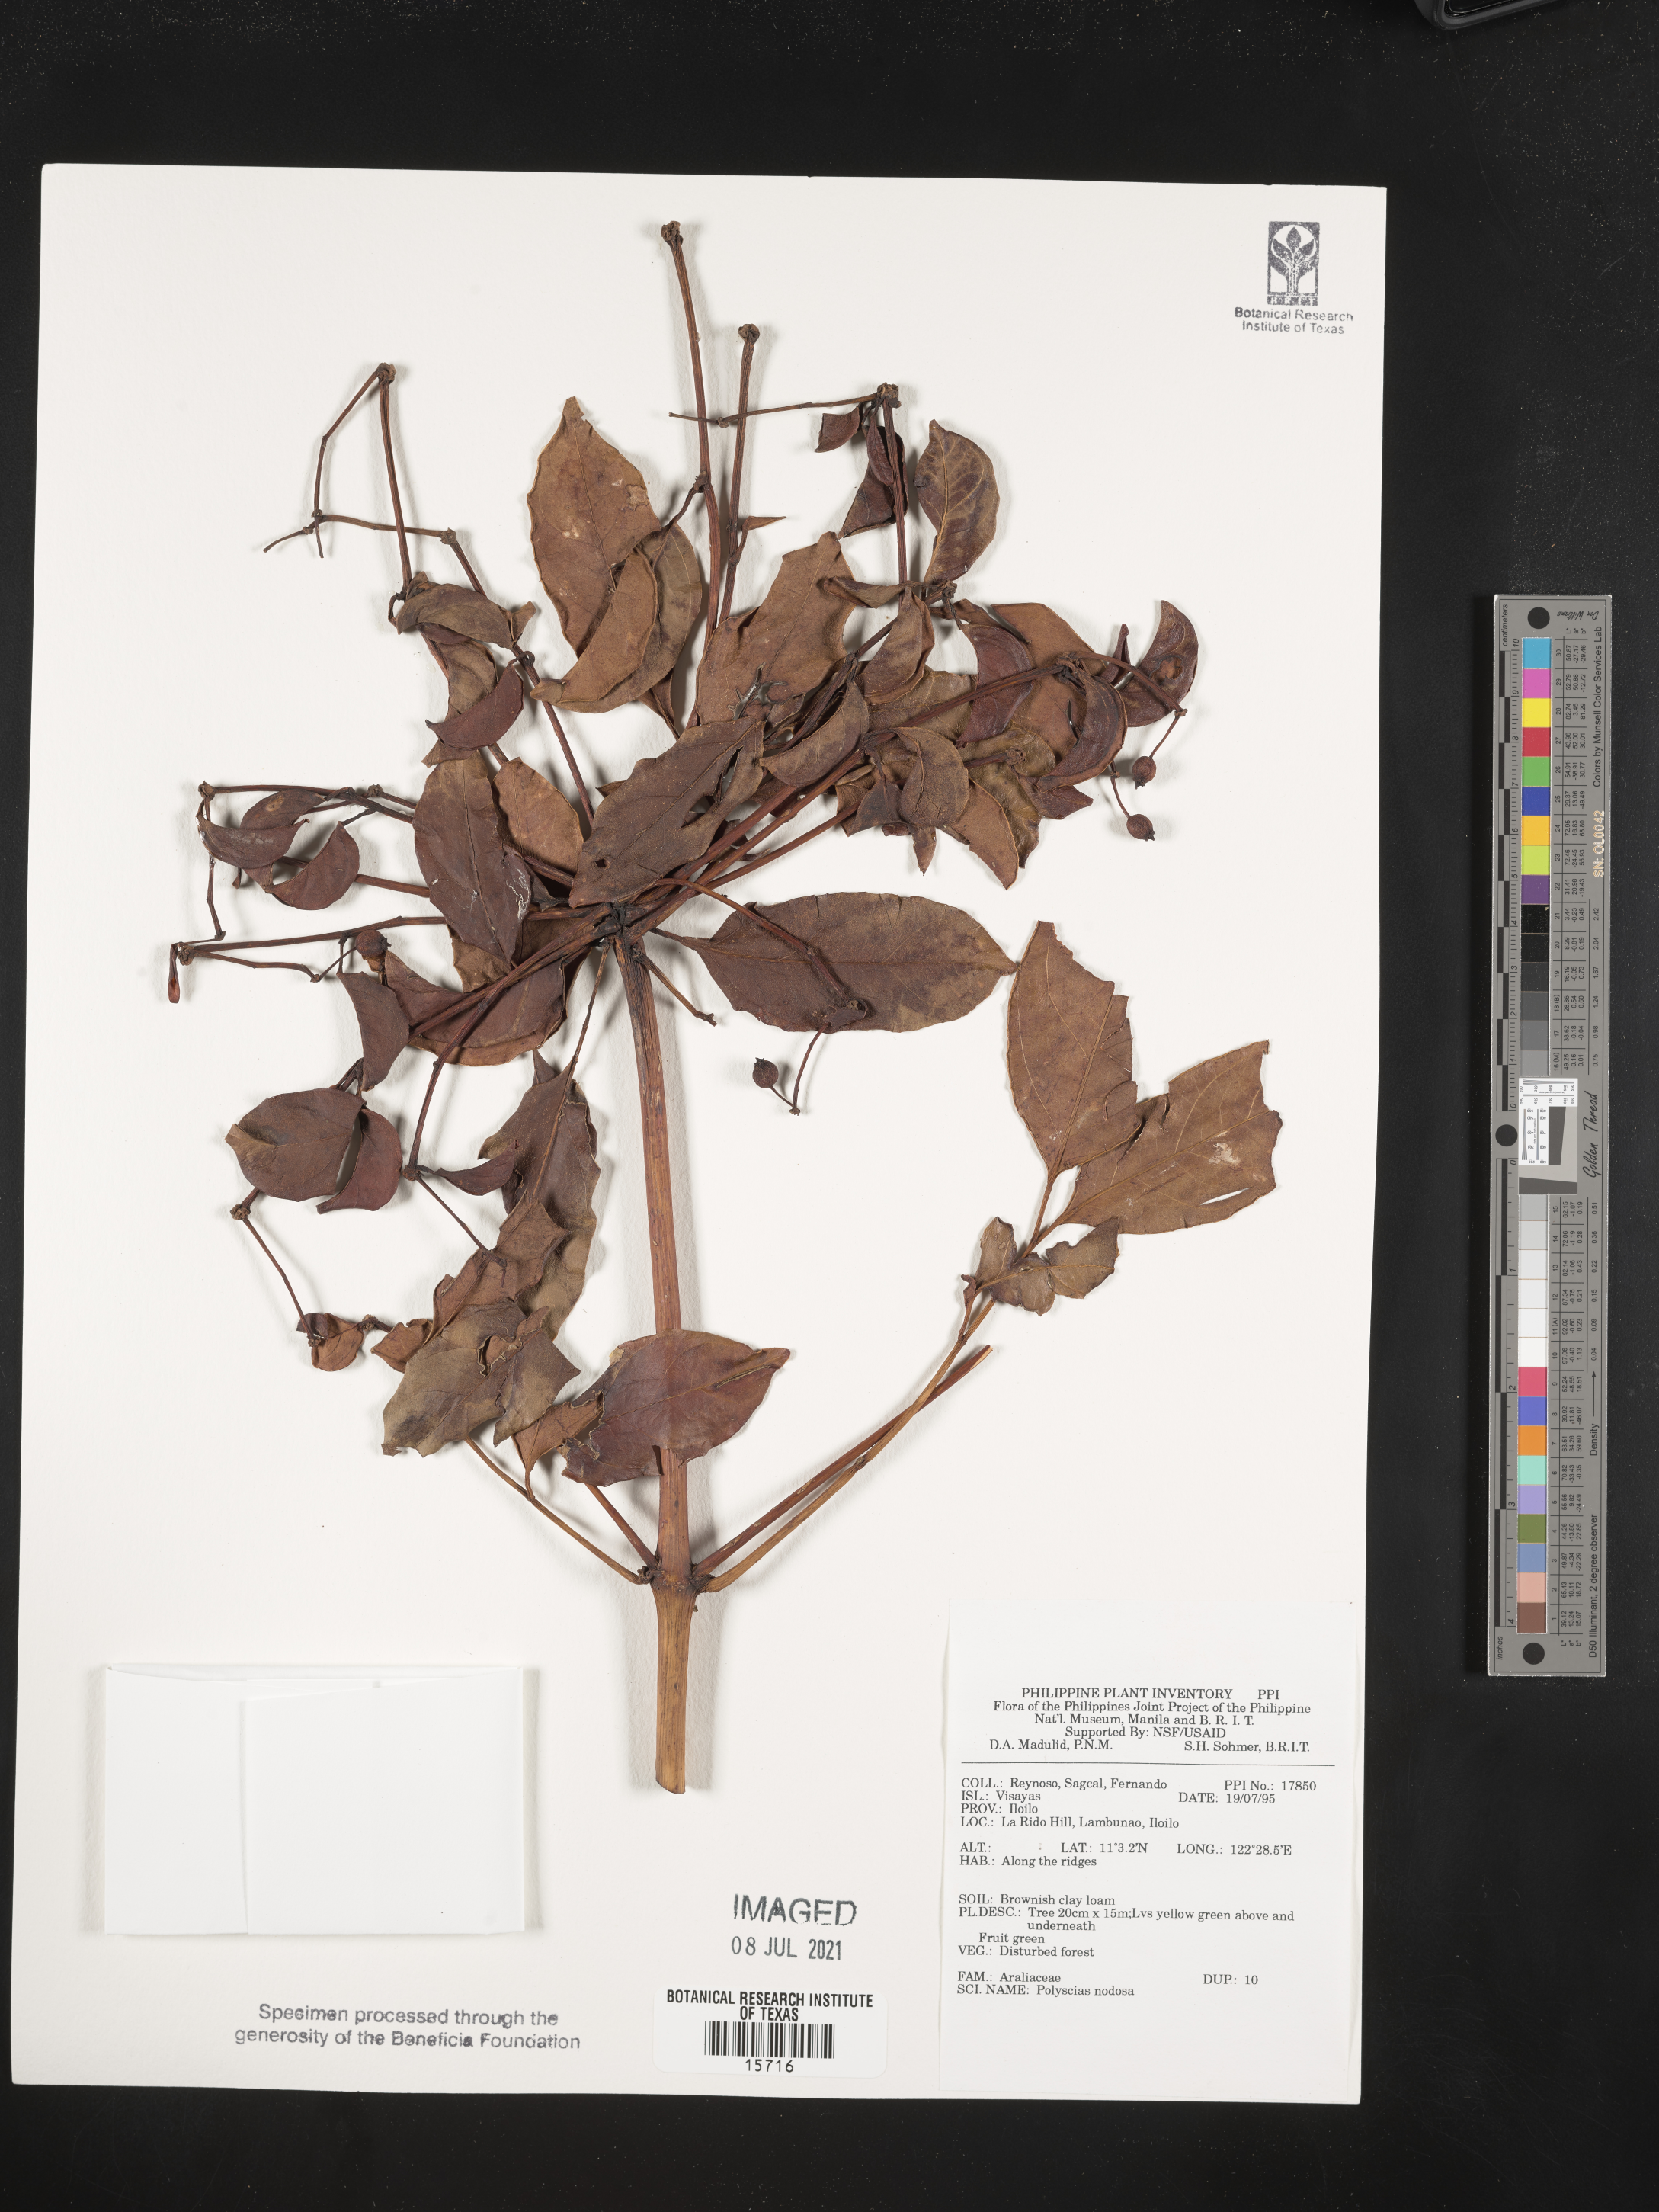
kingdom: Plantae
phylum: Tracheophyta
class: Magnoliopsida
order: Apiales
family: Araliaceae
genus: Polyscias
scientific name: Polyscias nodosa
